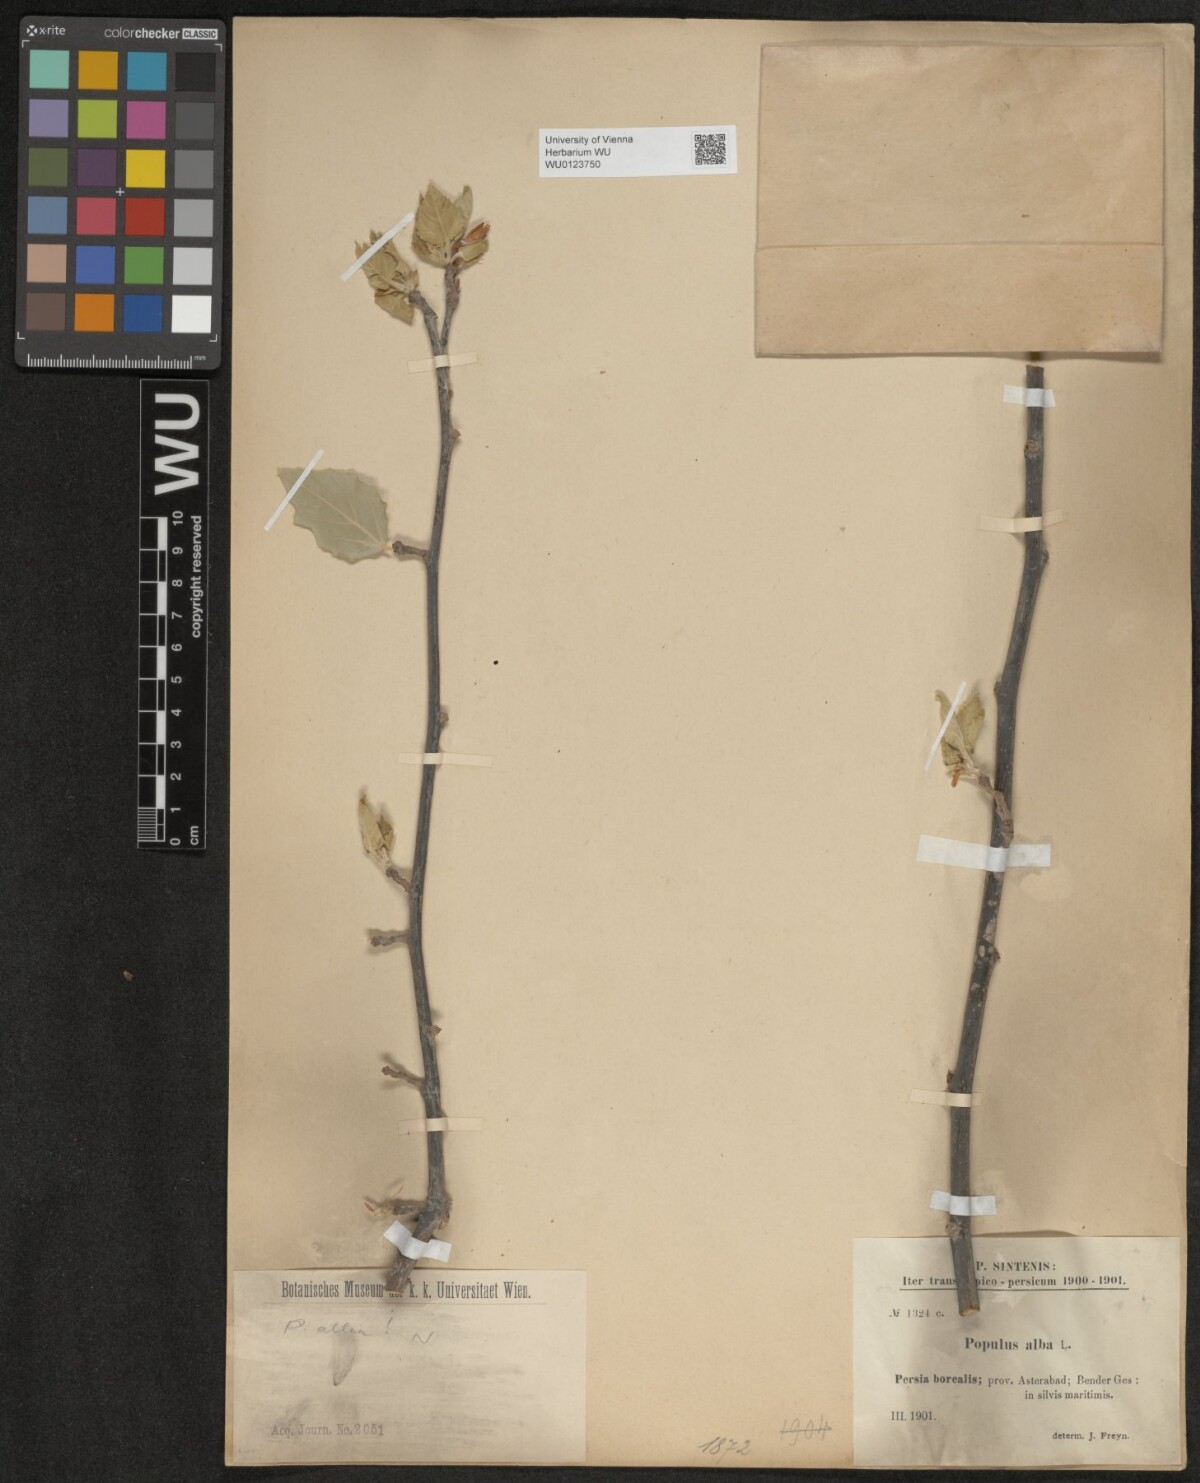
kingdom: Plantae
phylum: Tracheophyta
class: Magnoliopsida
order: Malpighiales
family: Salicaceae
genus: Populus
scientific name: Populus alba
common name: White poplar
